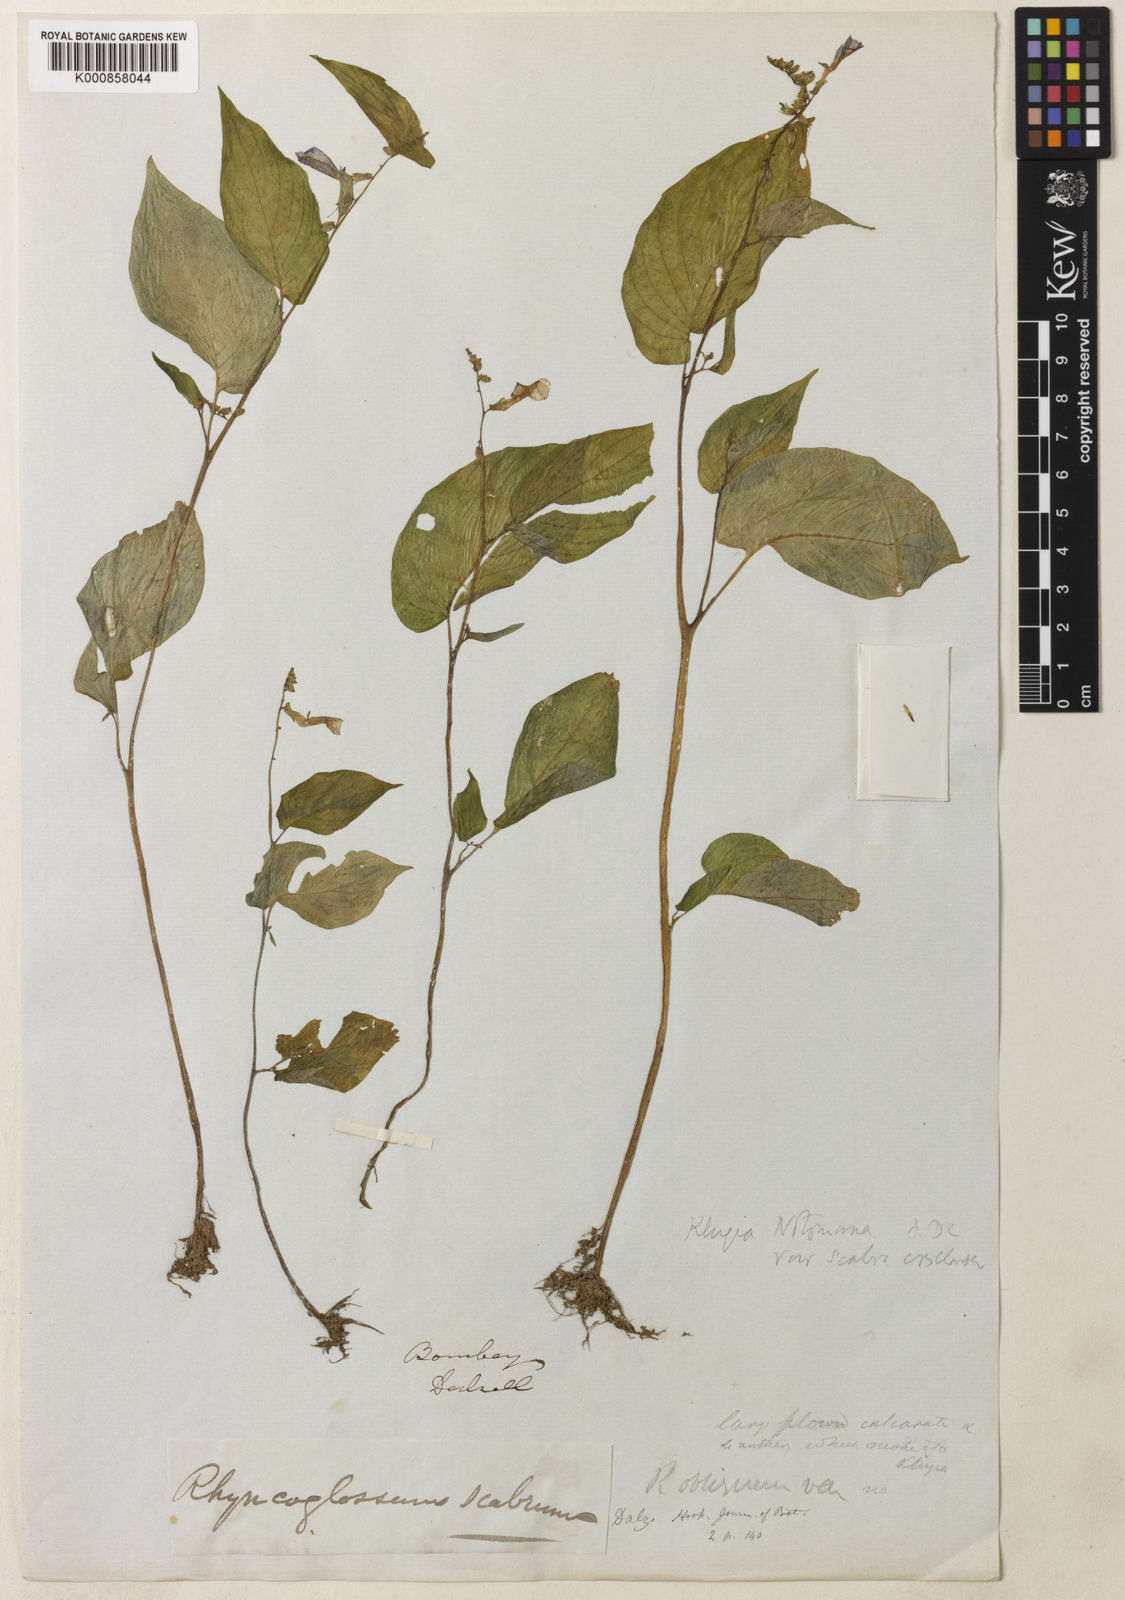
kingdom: Plantae
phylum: Tracheophyta
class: Magnoliopsida
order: Lamiales
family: Gesneriaceae
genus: Rhynchoglossum
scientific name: Rhynchoglossum notonianum
